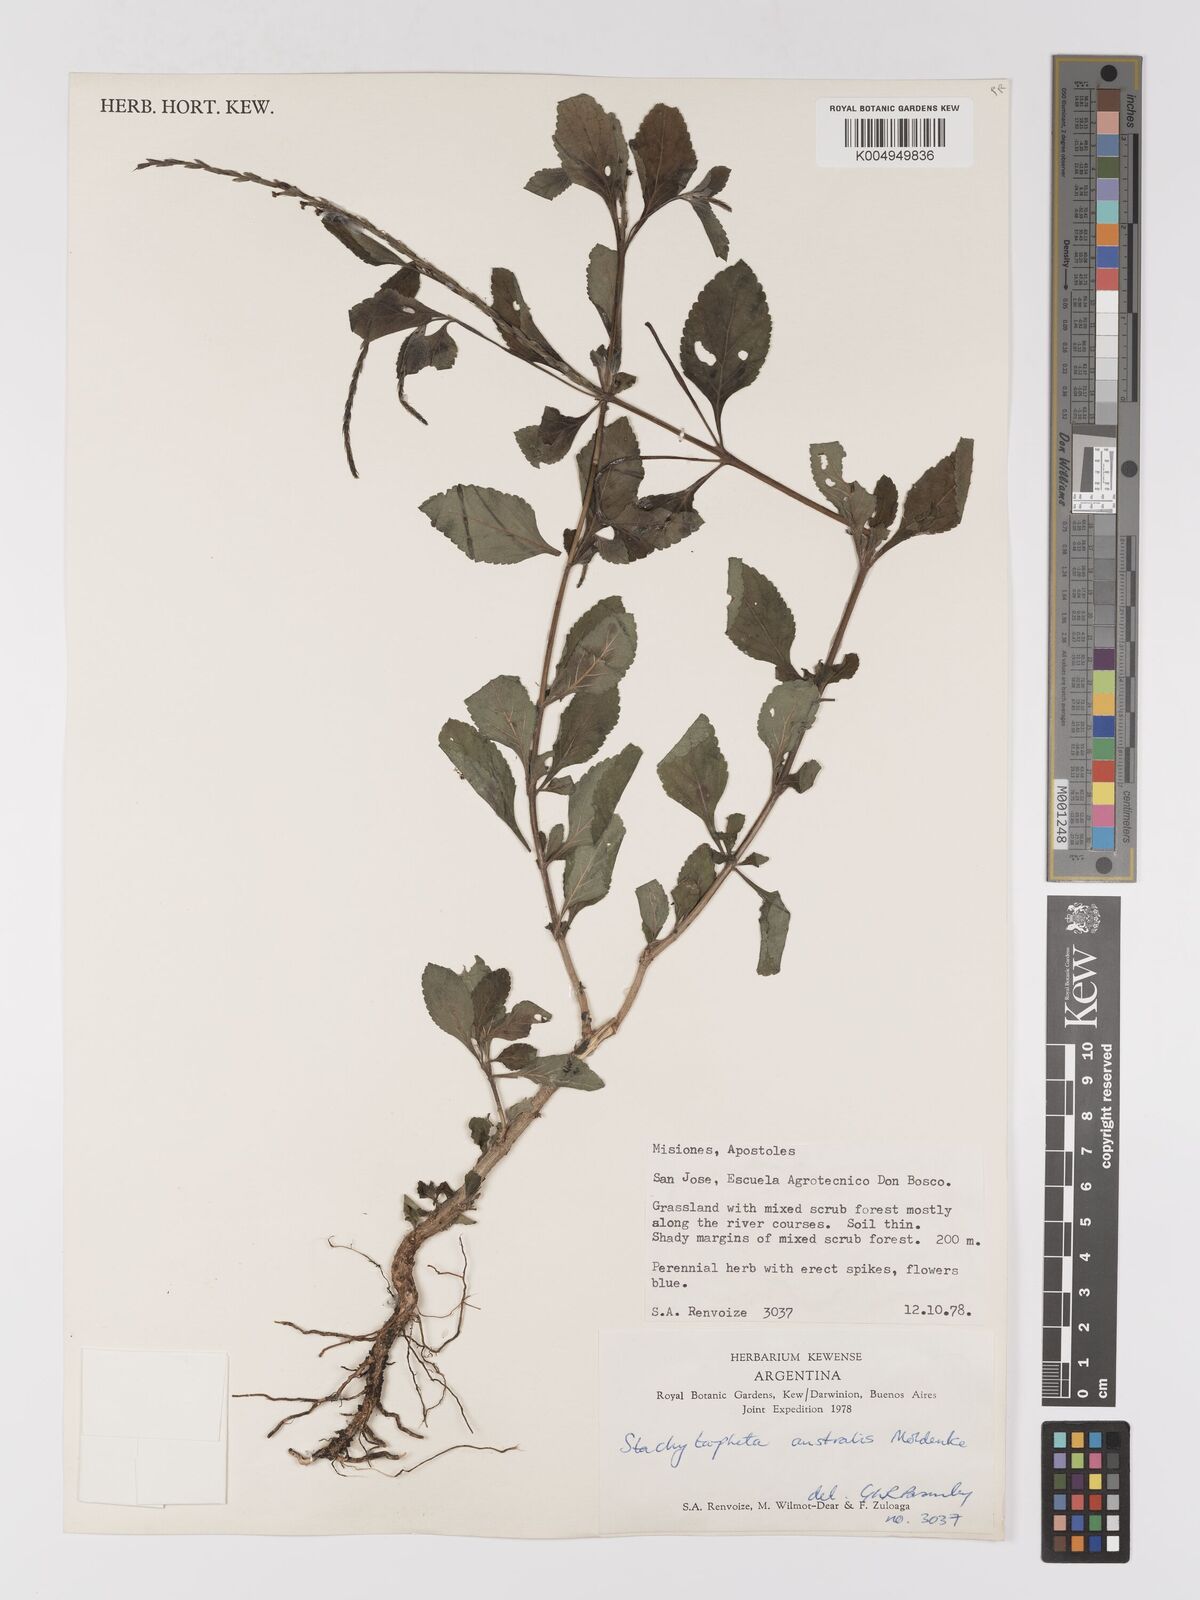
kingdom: Plantae
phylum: Tracheophyta
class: Magnoliopsida
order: Lamiales
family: Verbenaceae
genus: Stachytarpheta
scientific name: Stachytarpheta cayennensis
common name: Cayenne porterweed
